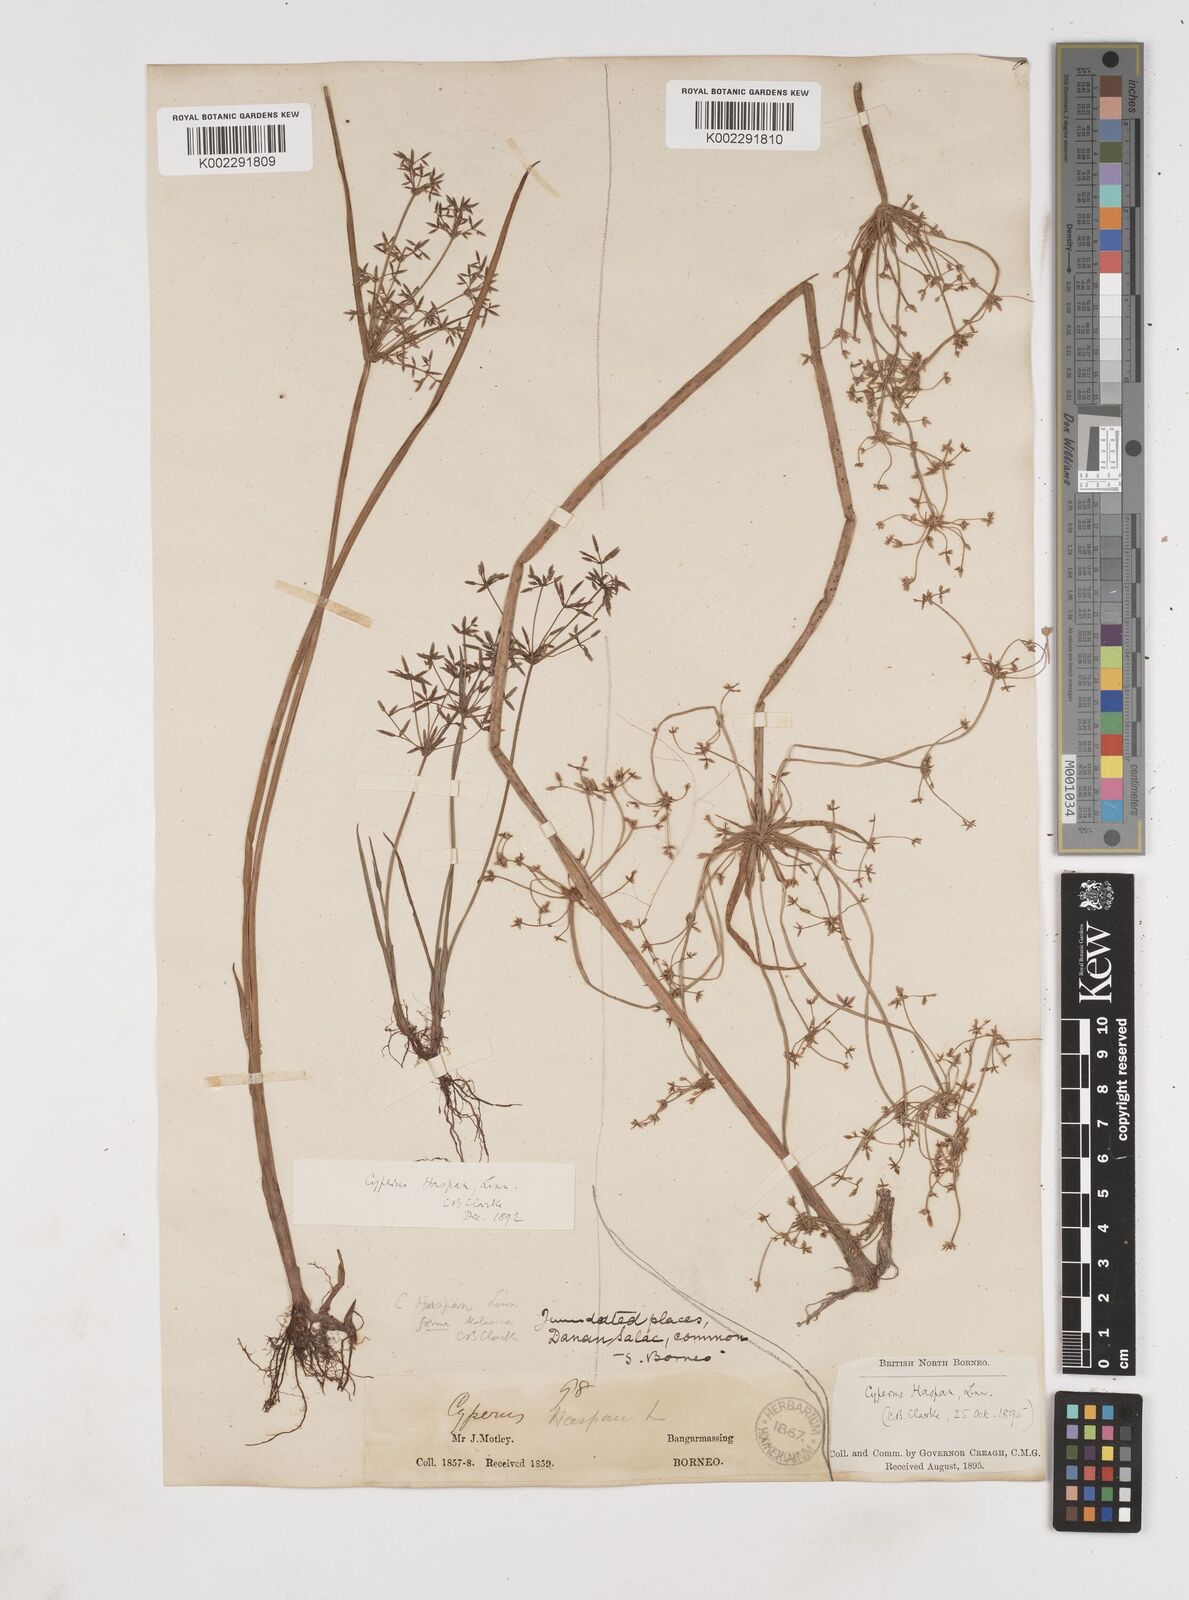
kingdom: Plantae
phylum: Tracheophyta
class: Liliopsida
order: Poales
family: Cyperaceae
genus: Cyperus
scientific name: Cyperus haspan
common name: Haspan flatsedge
